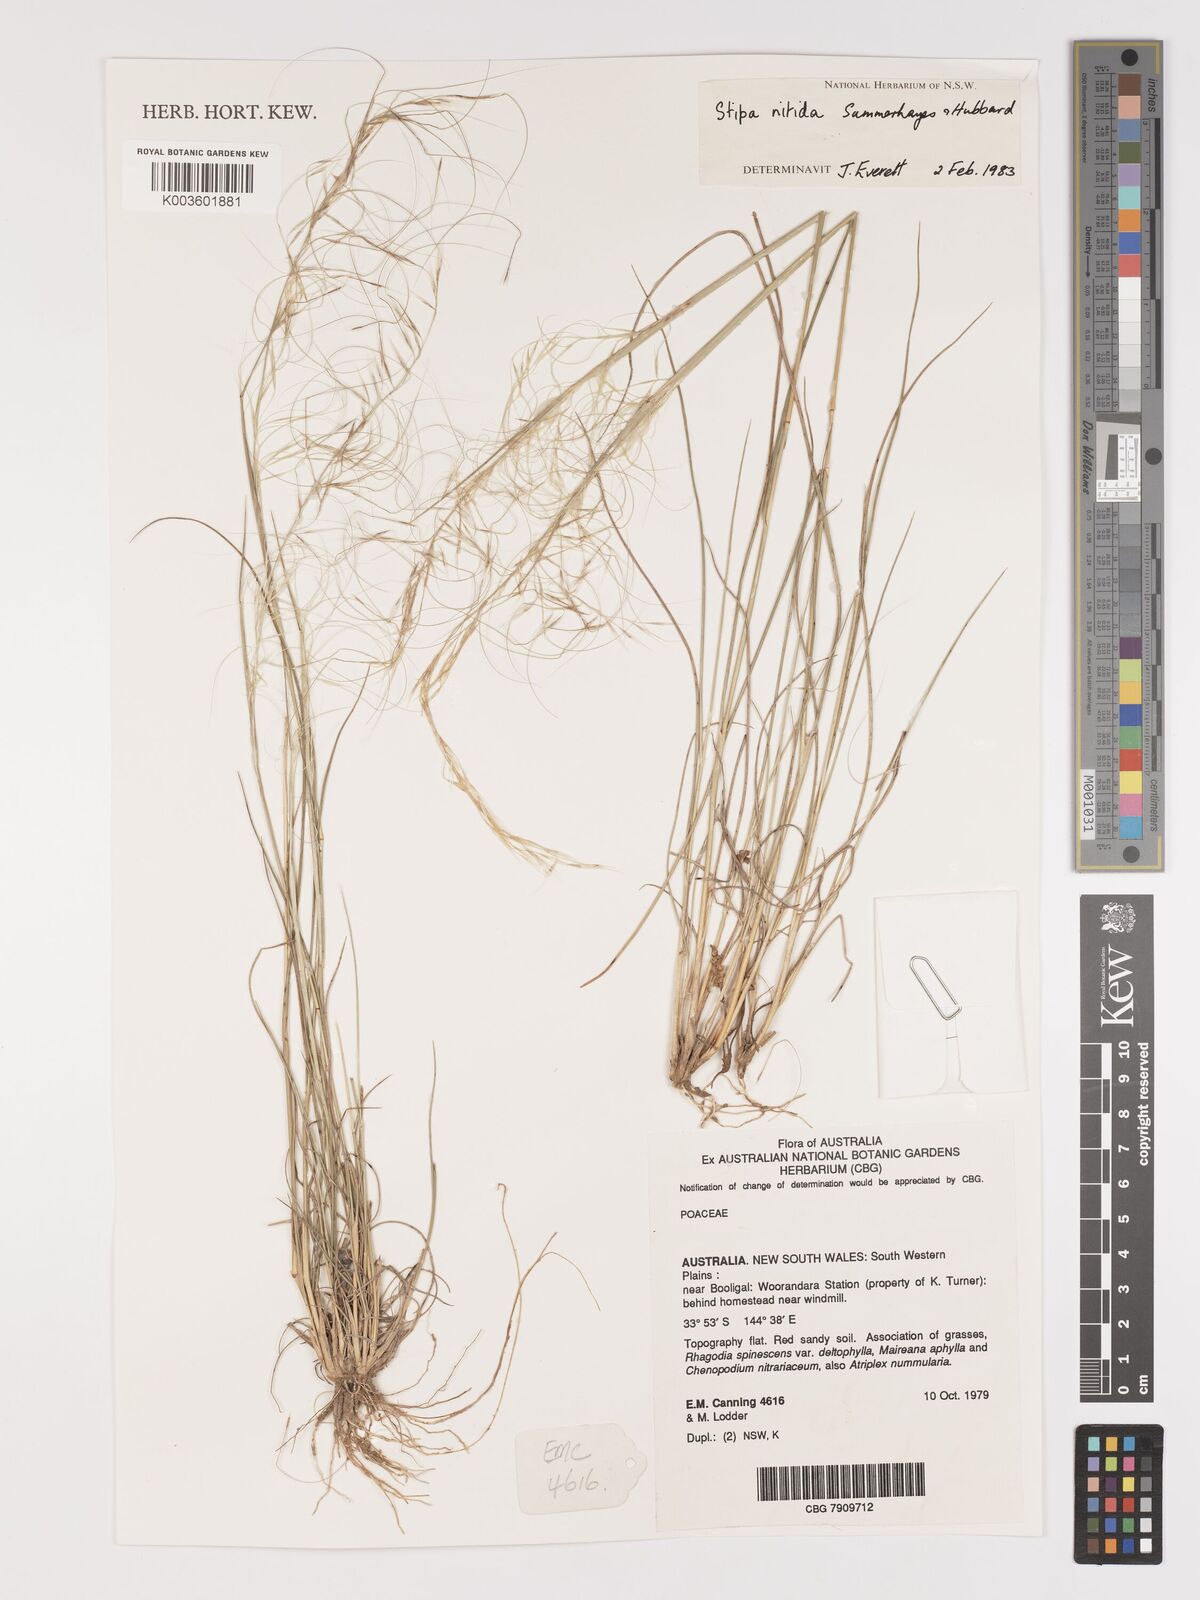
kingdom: Plantae
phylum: Tracheophyta
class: Liliopsida
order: Poales
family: Poaceae
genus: Austrostipa
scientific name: Austrostipa nitida
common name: Balcarra grass
